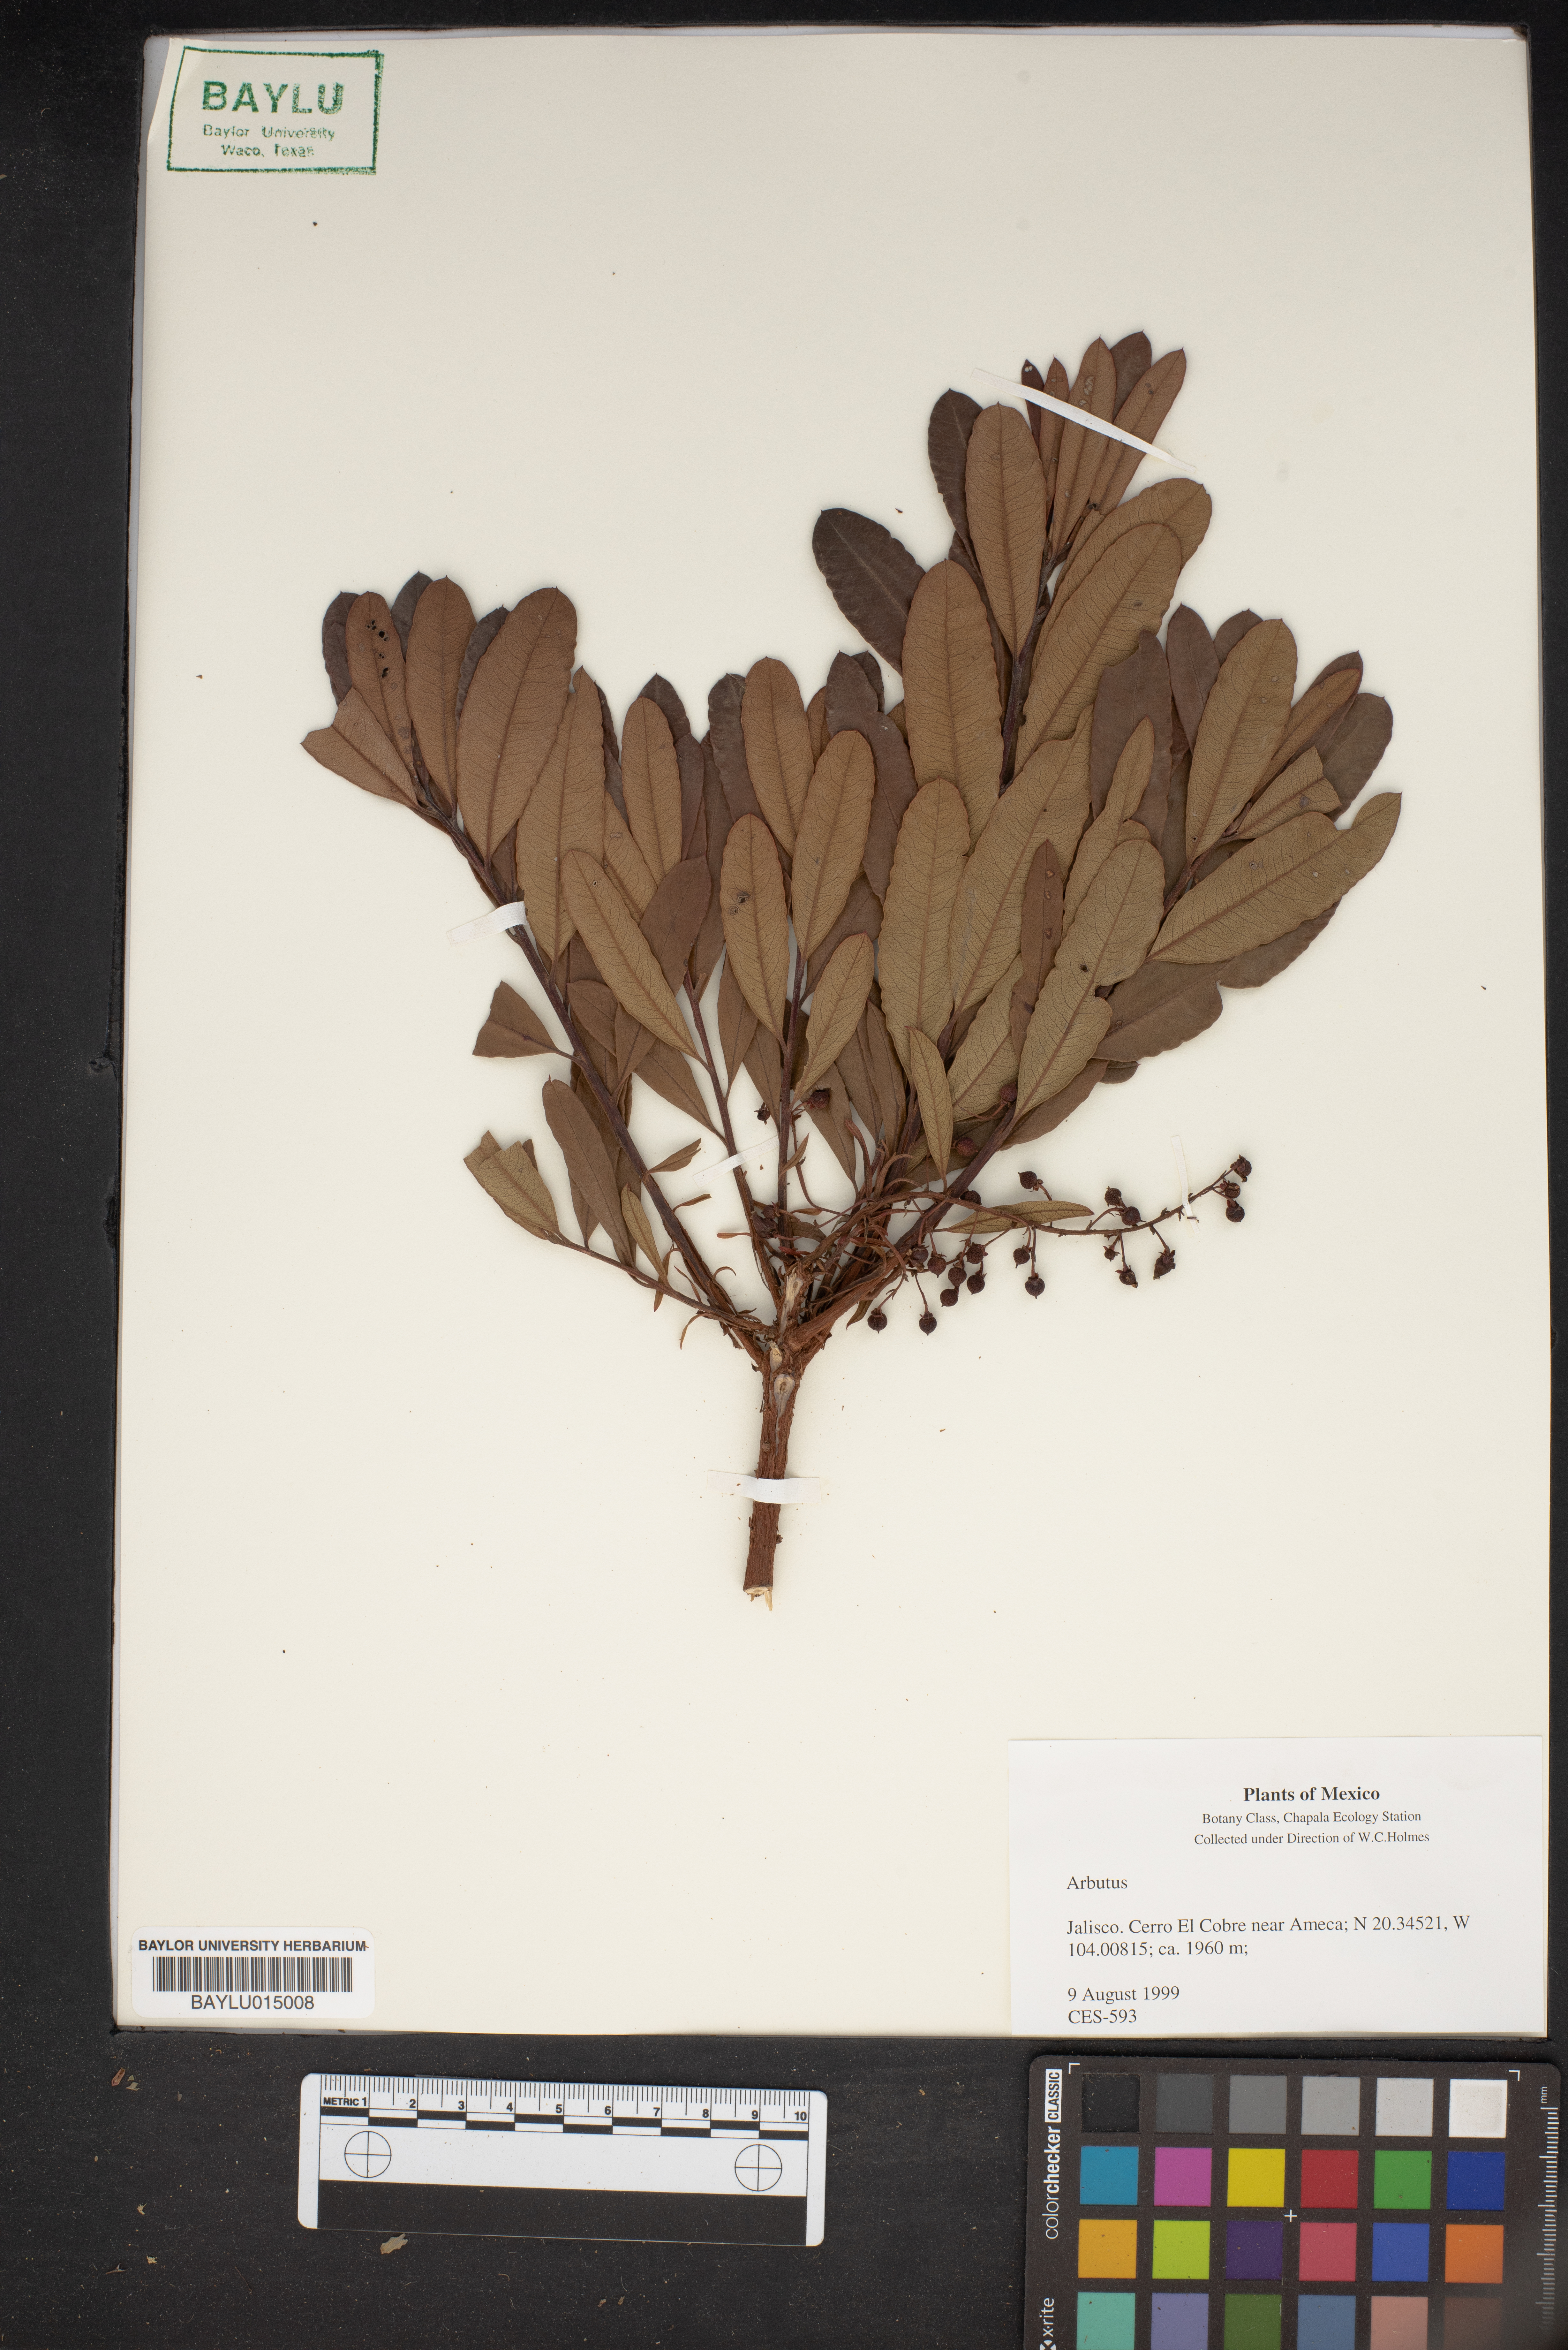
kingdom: Plantae
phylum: Tracheophyta
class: Magnoliopsida
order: Ericales
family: Ericaceae
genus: Arbutus
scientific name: Arbutus
